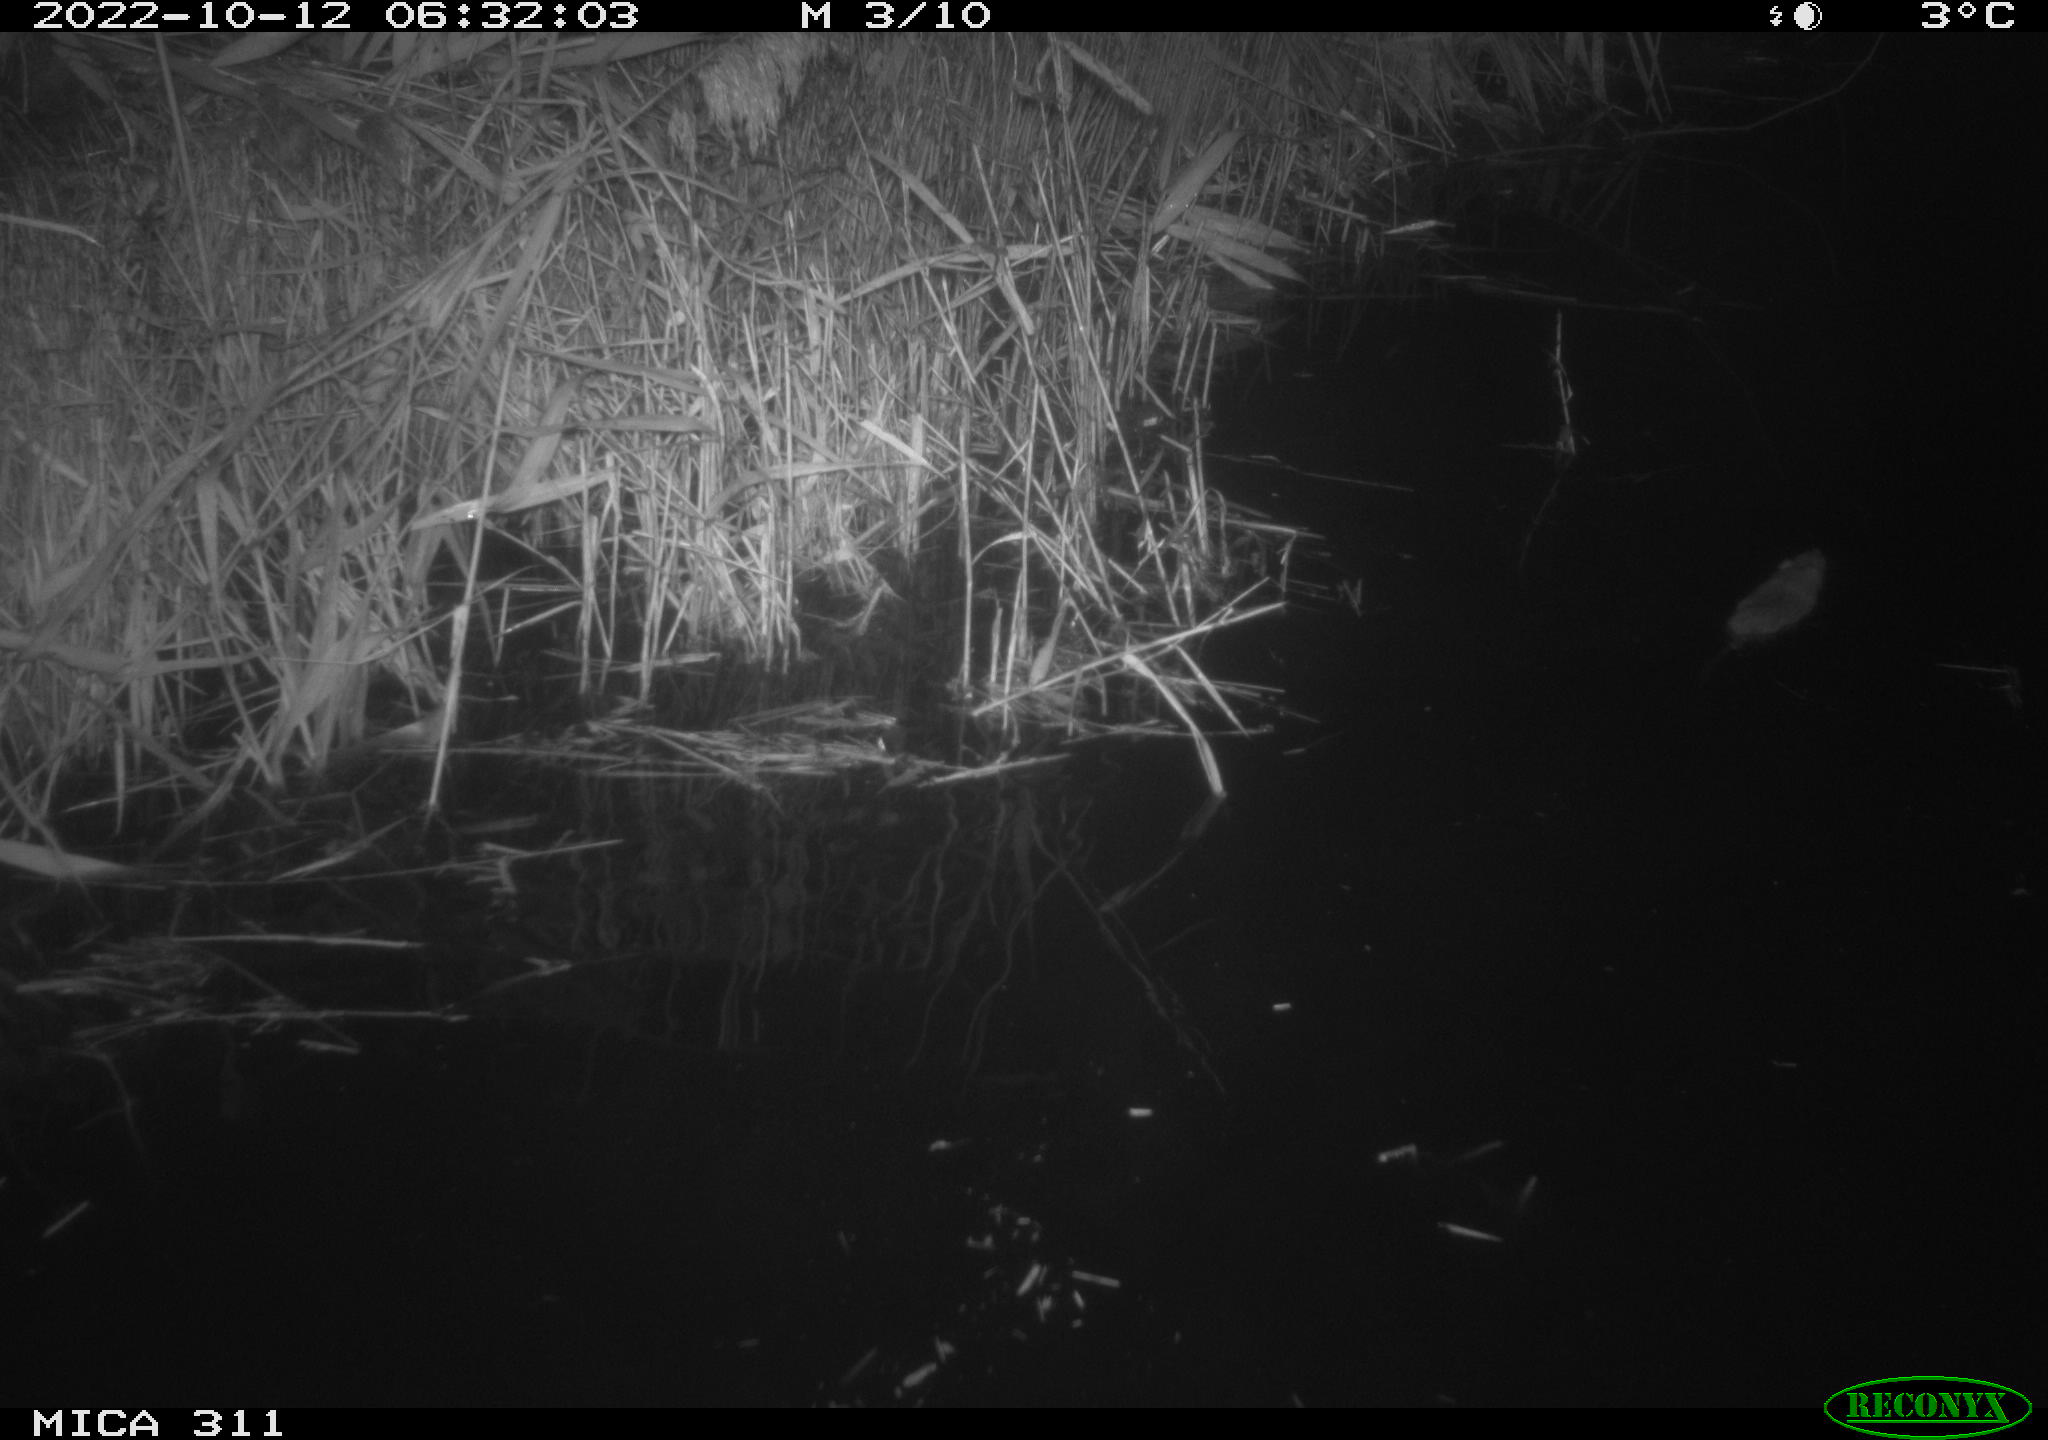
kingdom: Animalia
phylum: Chordata
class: Mammalia
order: Rodentia
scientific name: Rodentia
